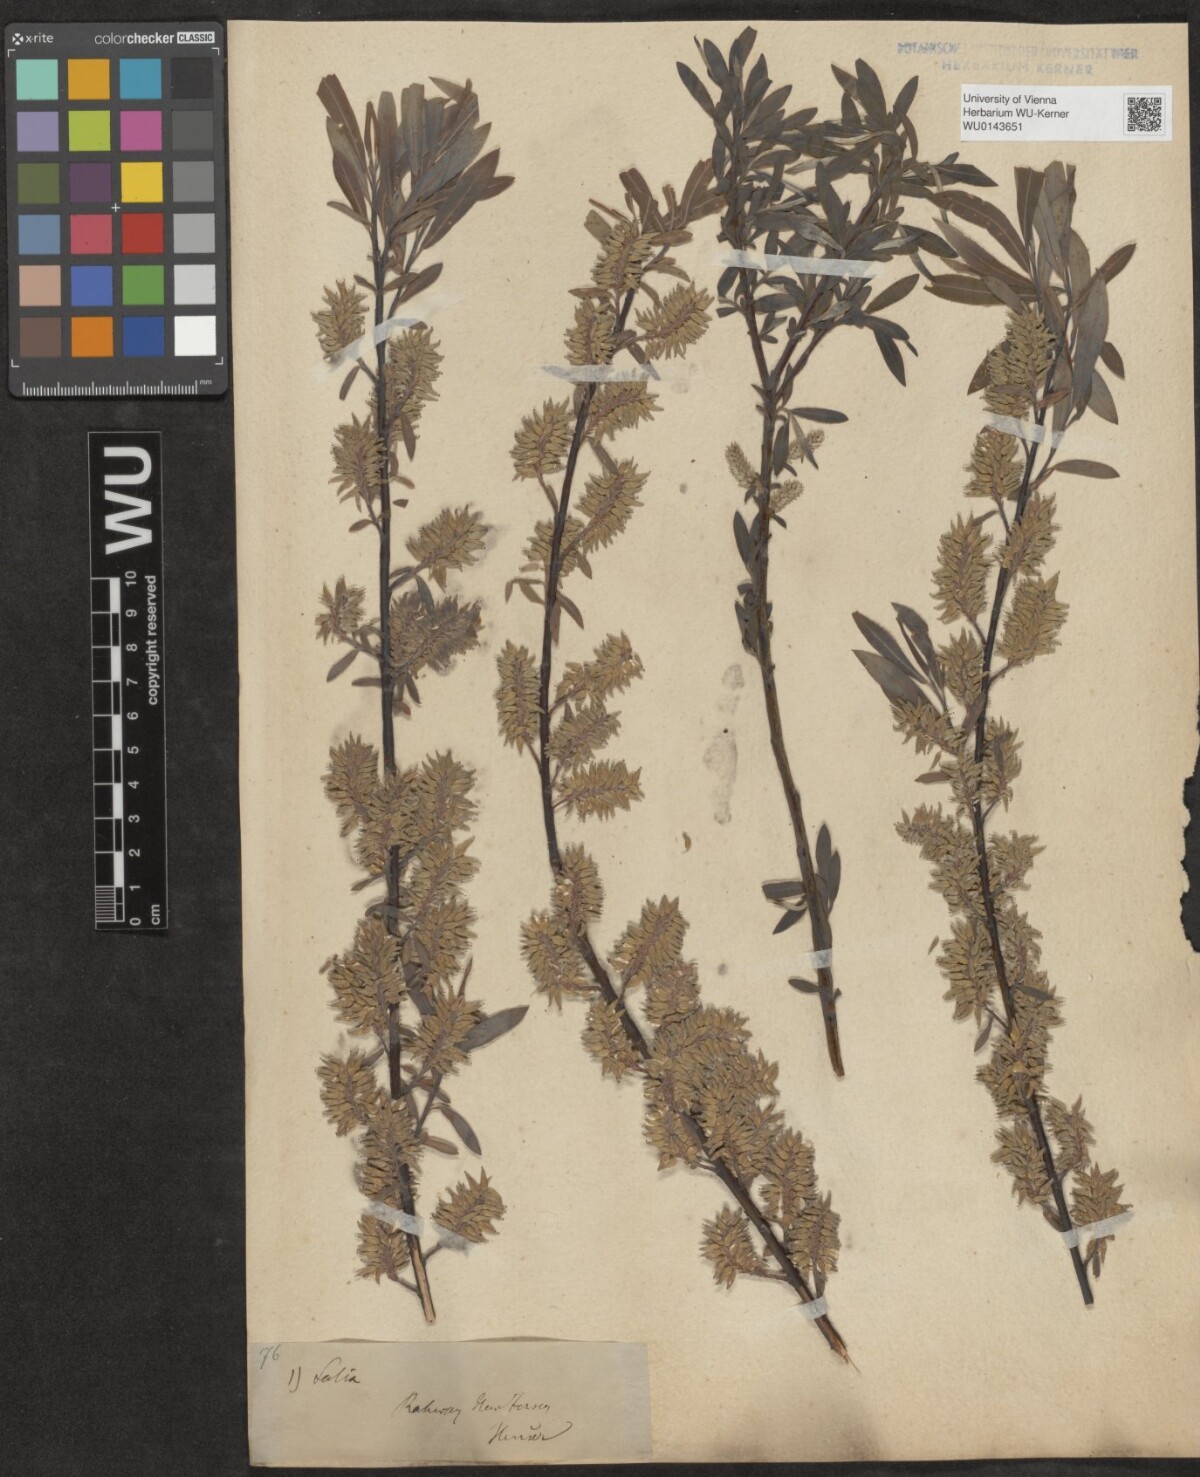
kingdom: Plantae
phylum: Tracheophyta
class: Magnoliopsida
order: Malpighiales
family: Salicaceae
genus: Salix
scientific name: Salix
